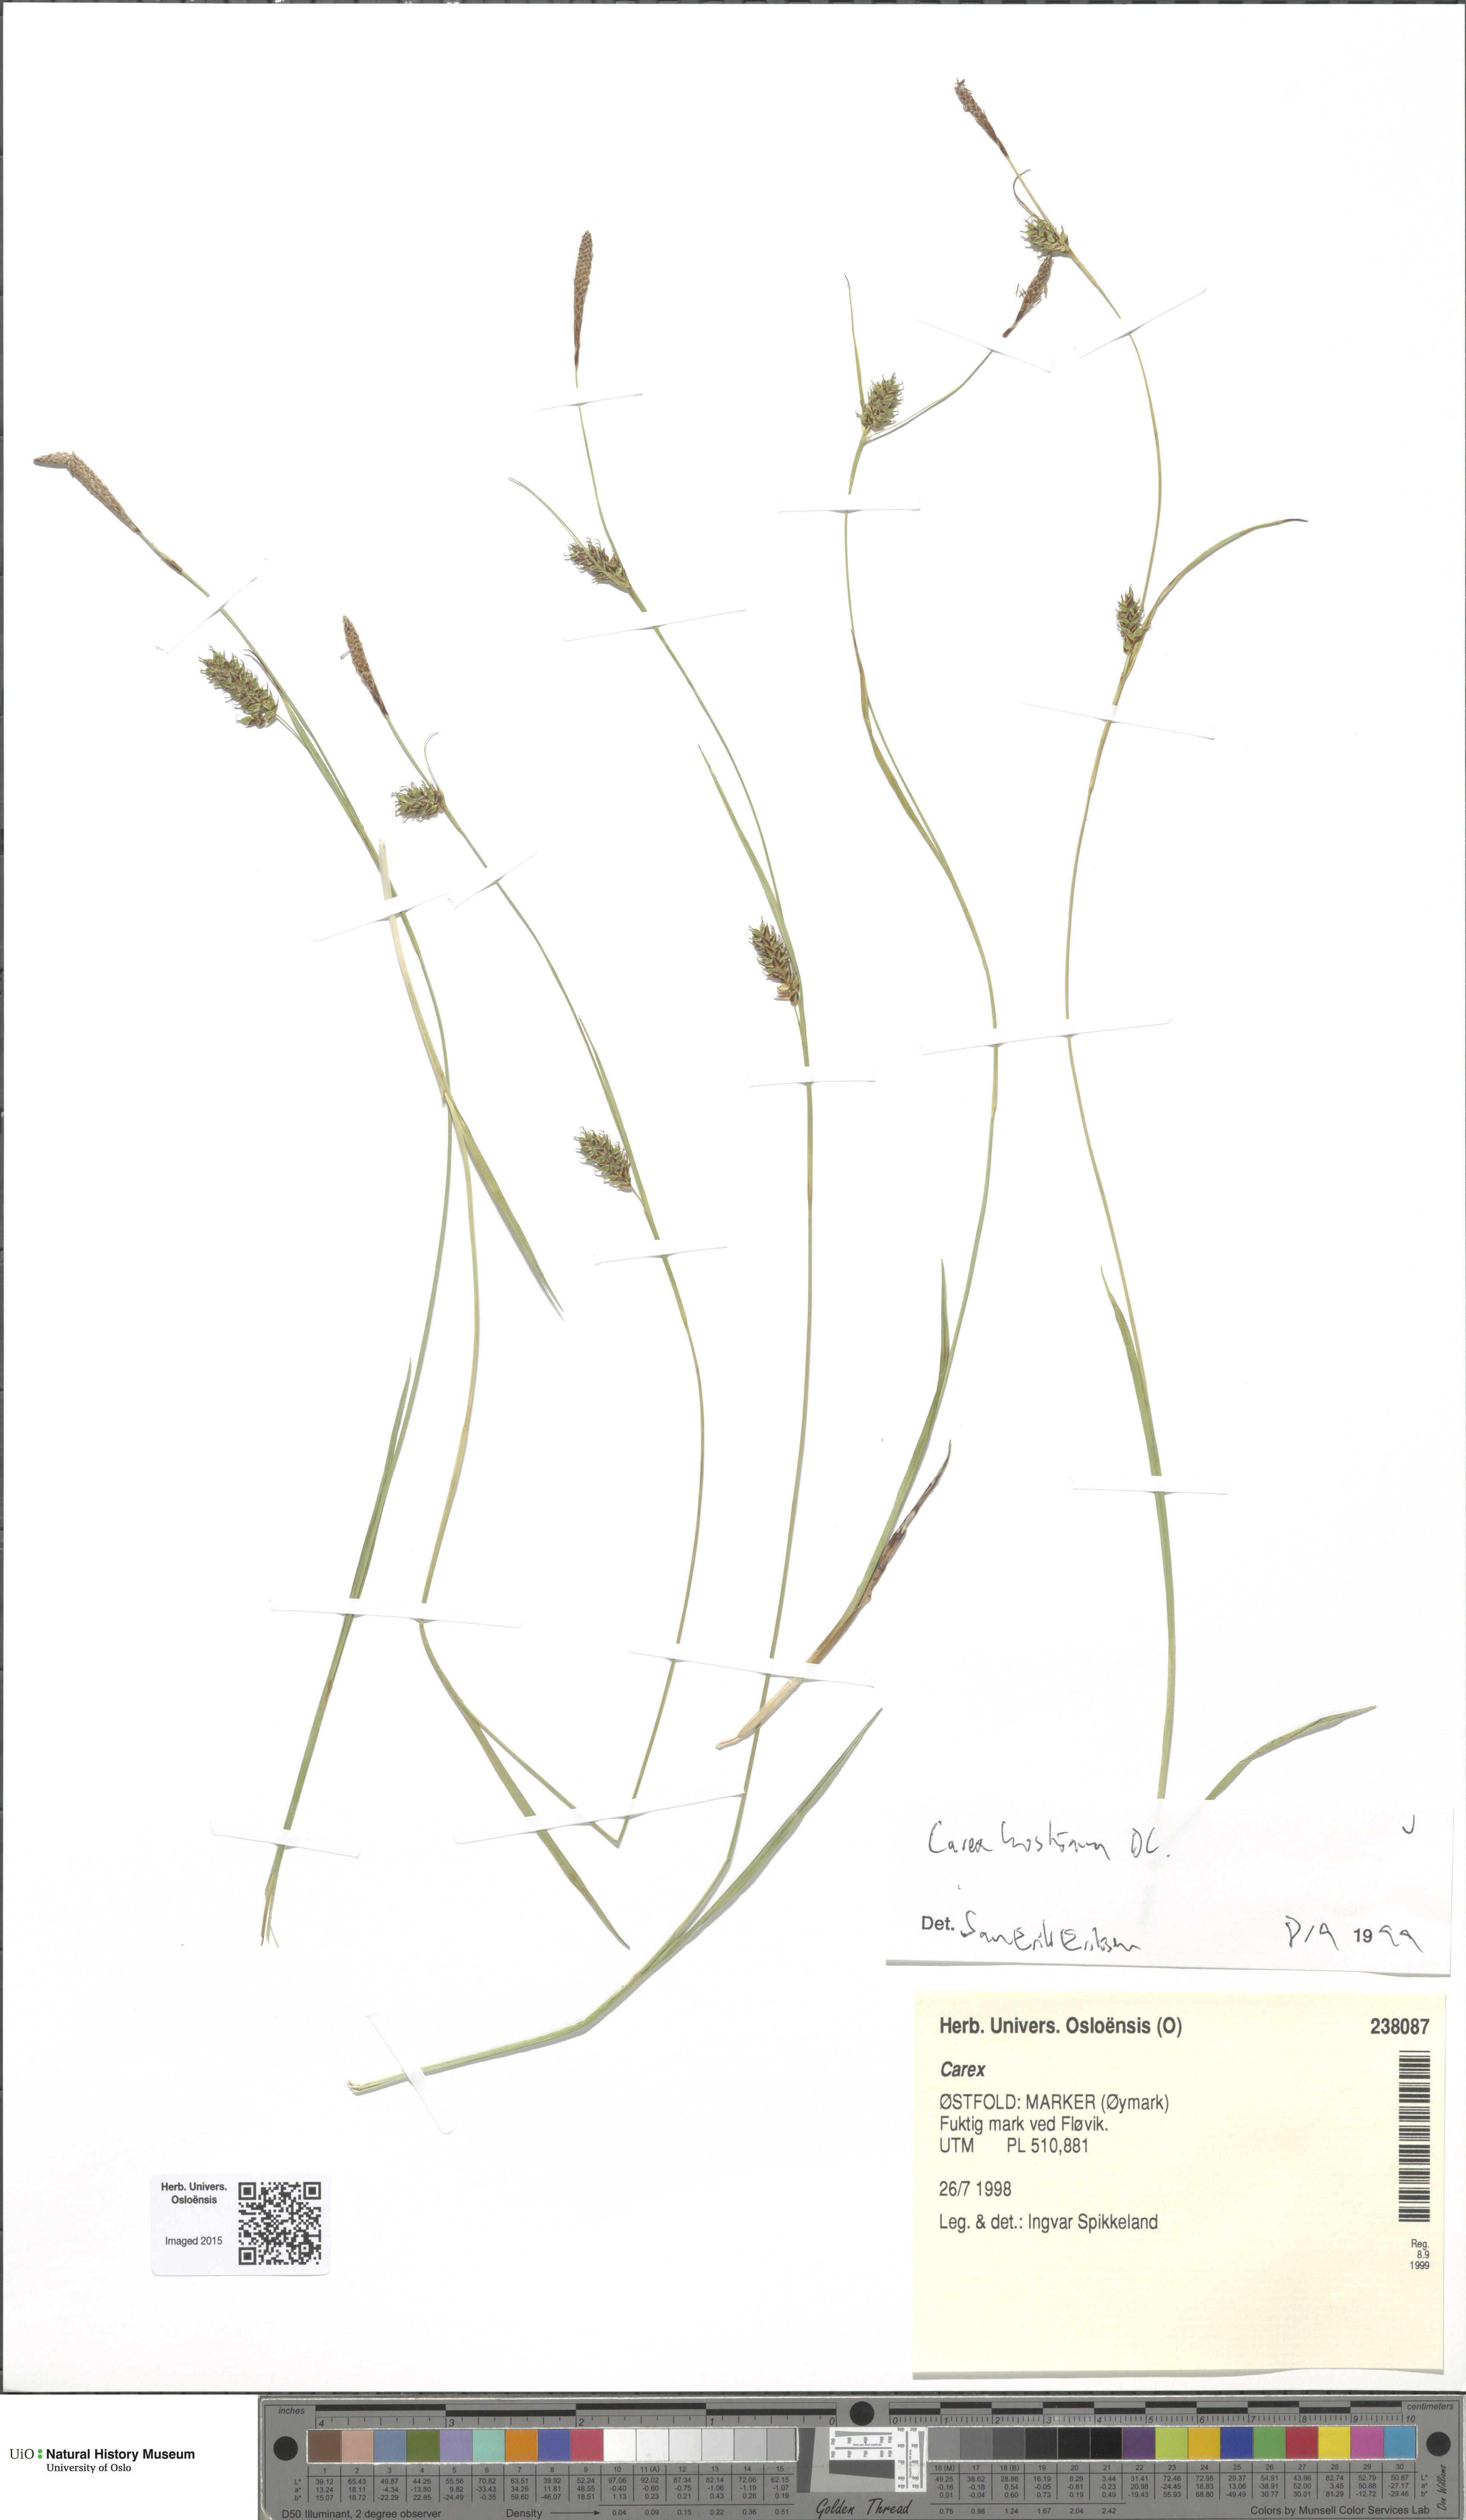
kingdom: Plantae
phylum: Tracheophyta
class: Liliopsida
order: Poales
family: Cyperaceae
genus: Carex
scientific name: Carex hostiana
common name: Tawny sedge
